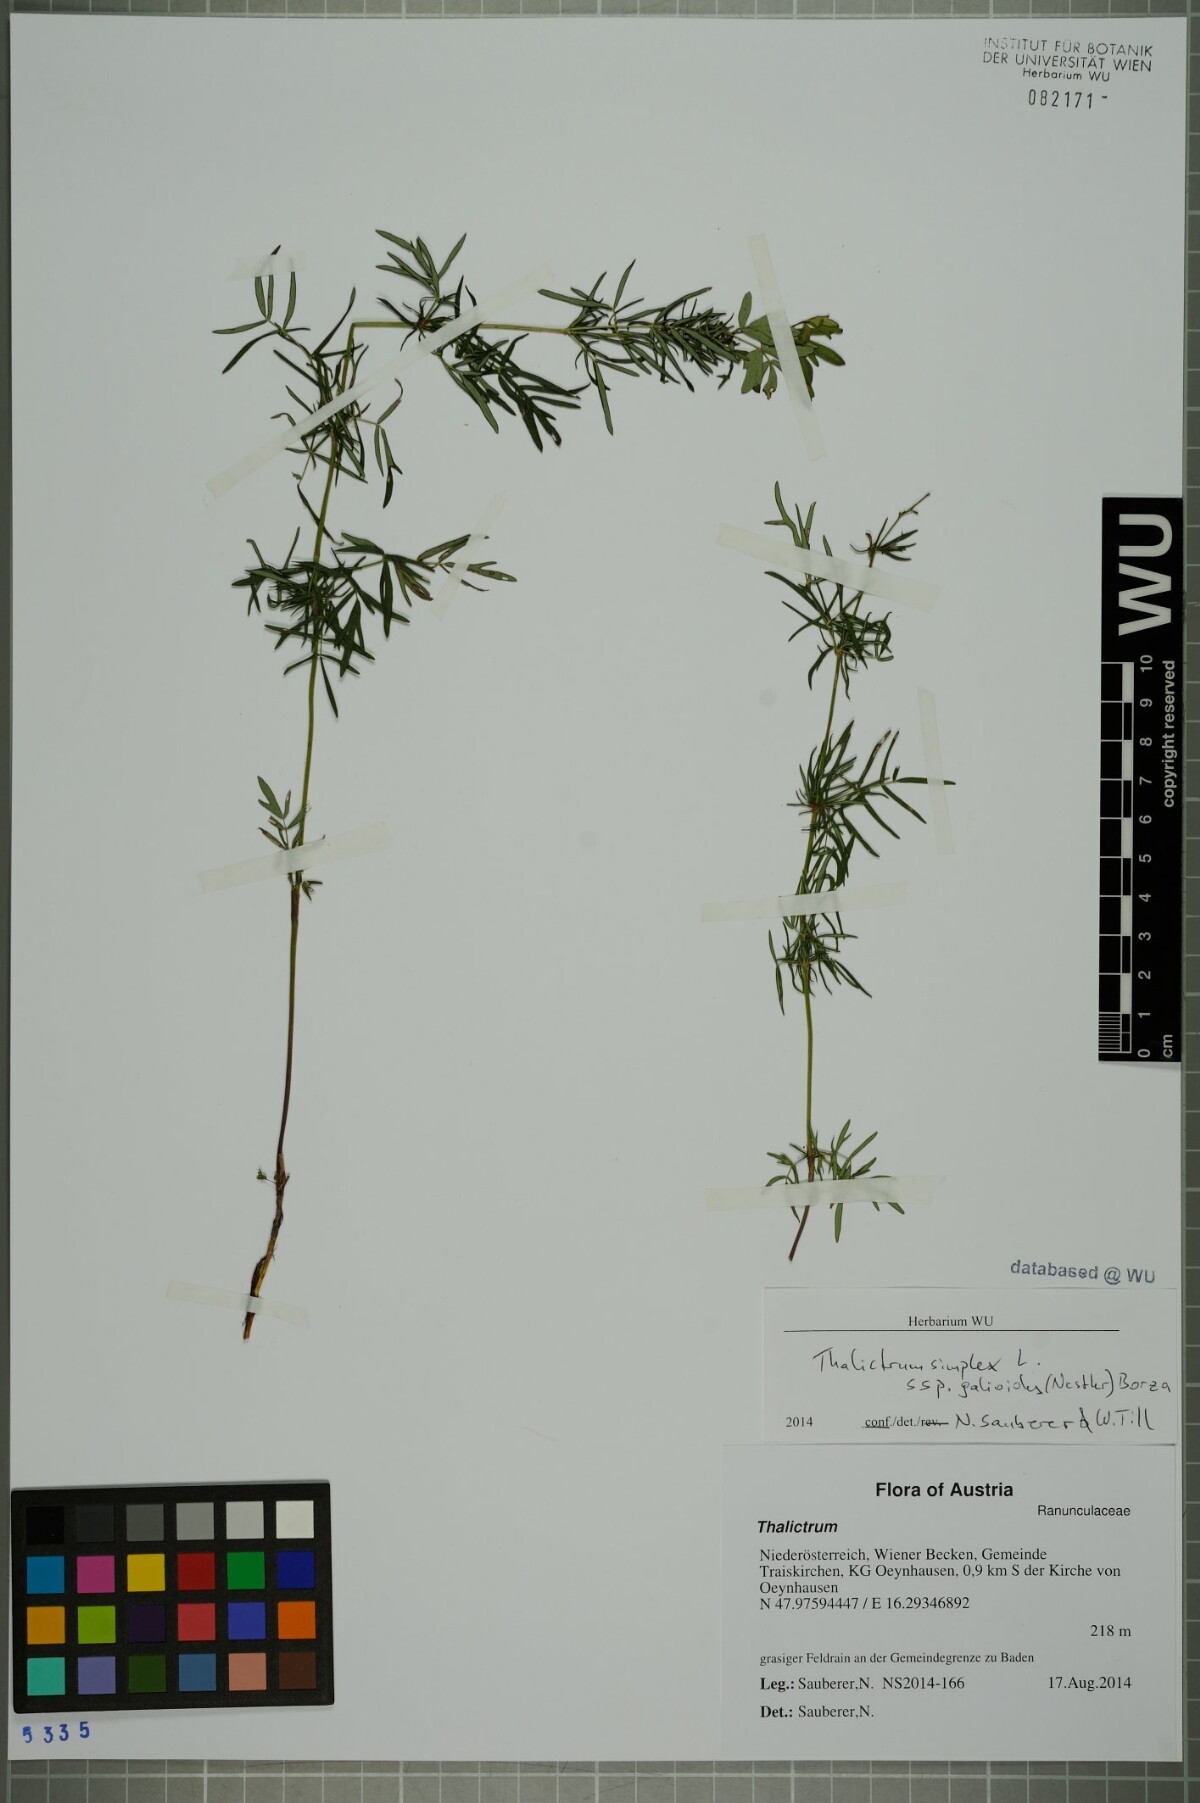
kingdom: Plantae
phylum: Tracheophyta
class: Magnoliopsida
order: Ranunculales
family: Ranunculaceae
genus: Thalictrum
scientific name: Thalictrum simplex
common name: Small meadow-rue
